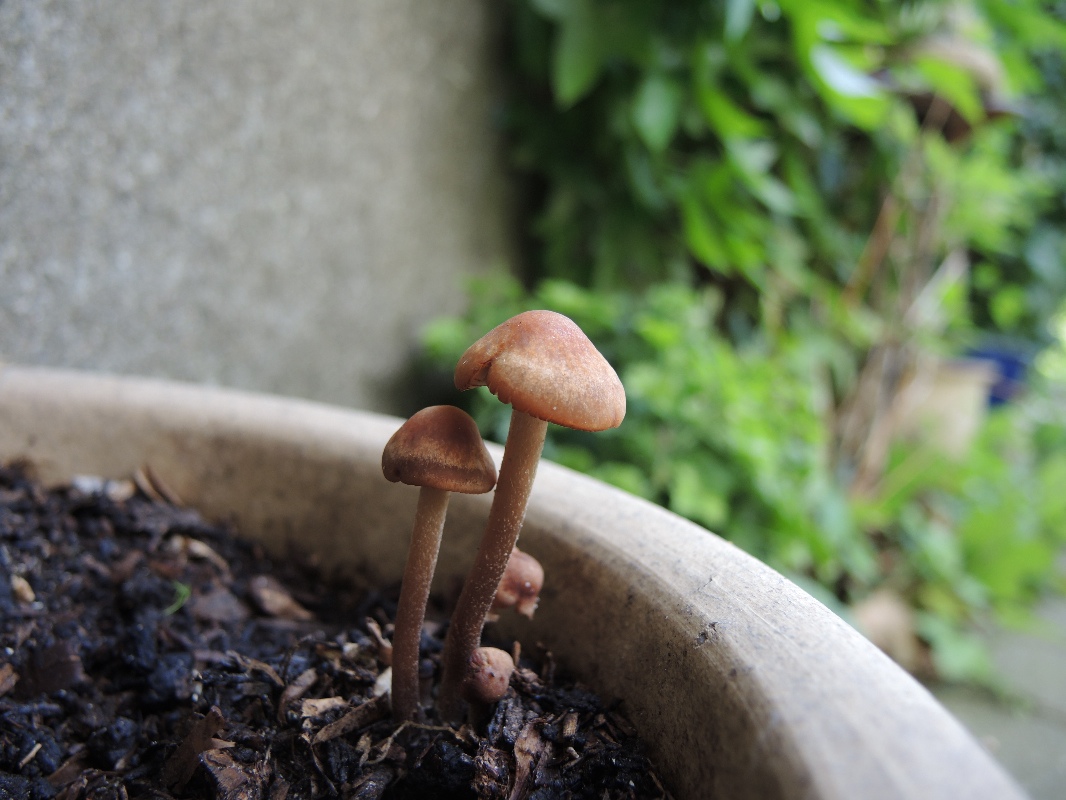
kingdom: Fungi
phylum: Basidiomycota
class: Agaricomycetes
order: Agaricales
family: Bolbitiaceae
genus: Panaeolus
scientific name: Panaeolus cinctulus
